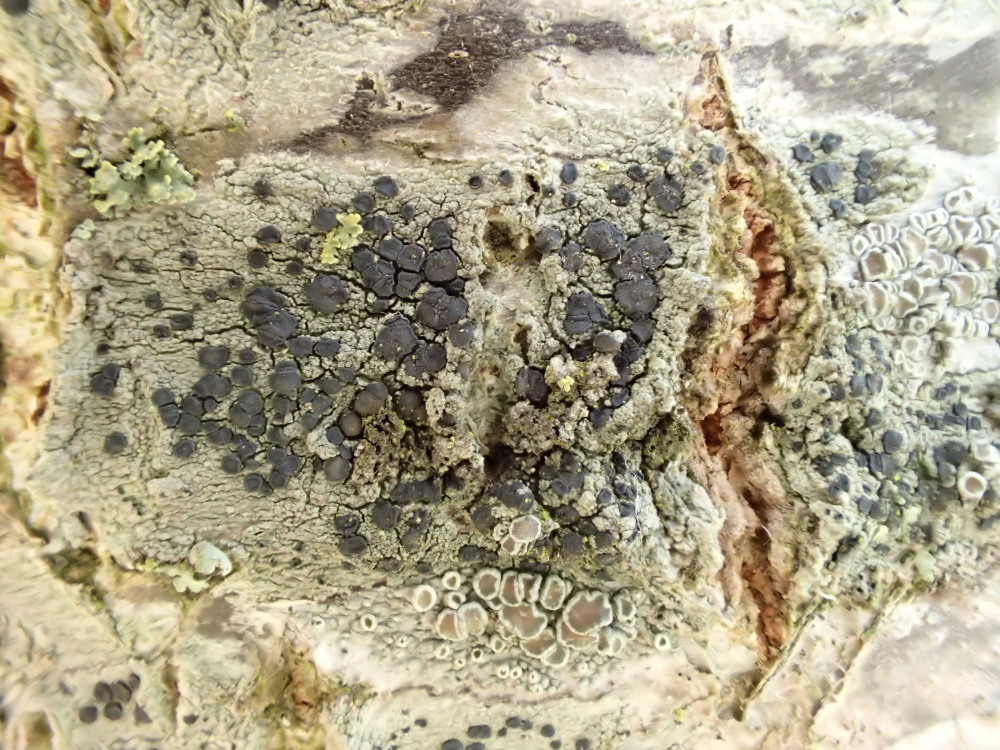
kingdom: Fungi
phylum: Ascomycota
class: Lecanoromycetes
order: Lecanorales
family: Lecanoraceae
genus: Lecidella
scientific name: Lecidella elaeochroma
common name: grågrøn skivelav
